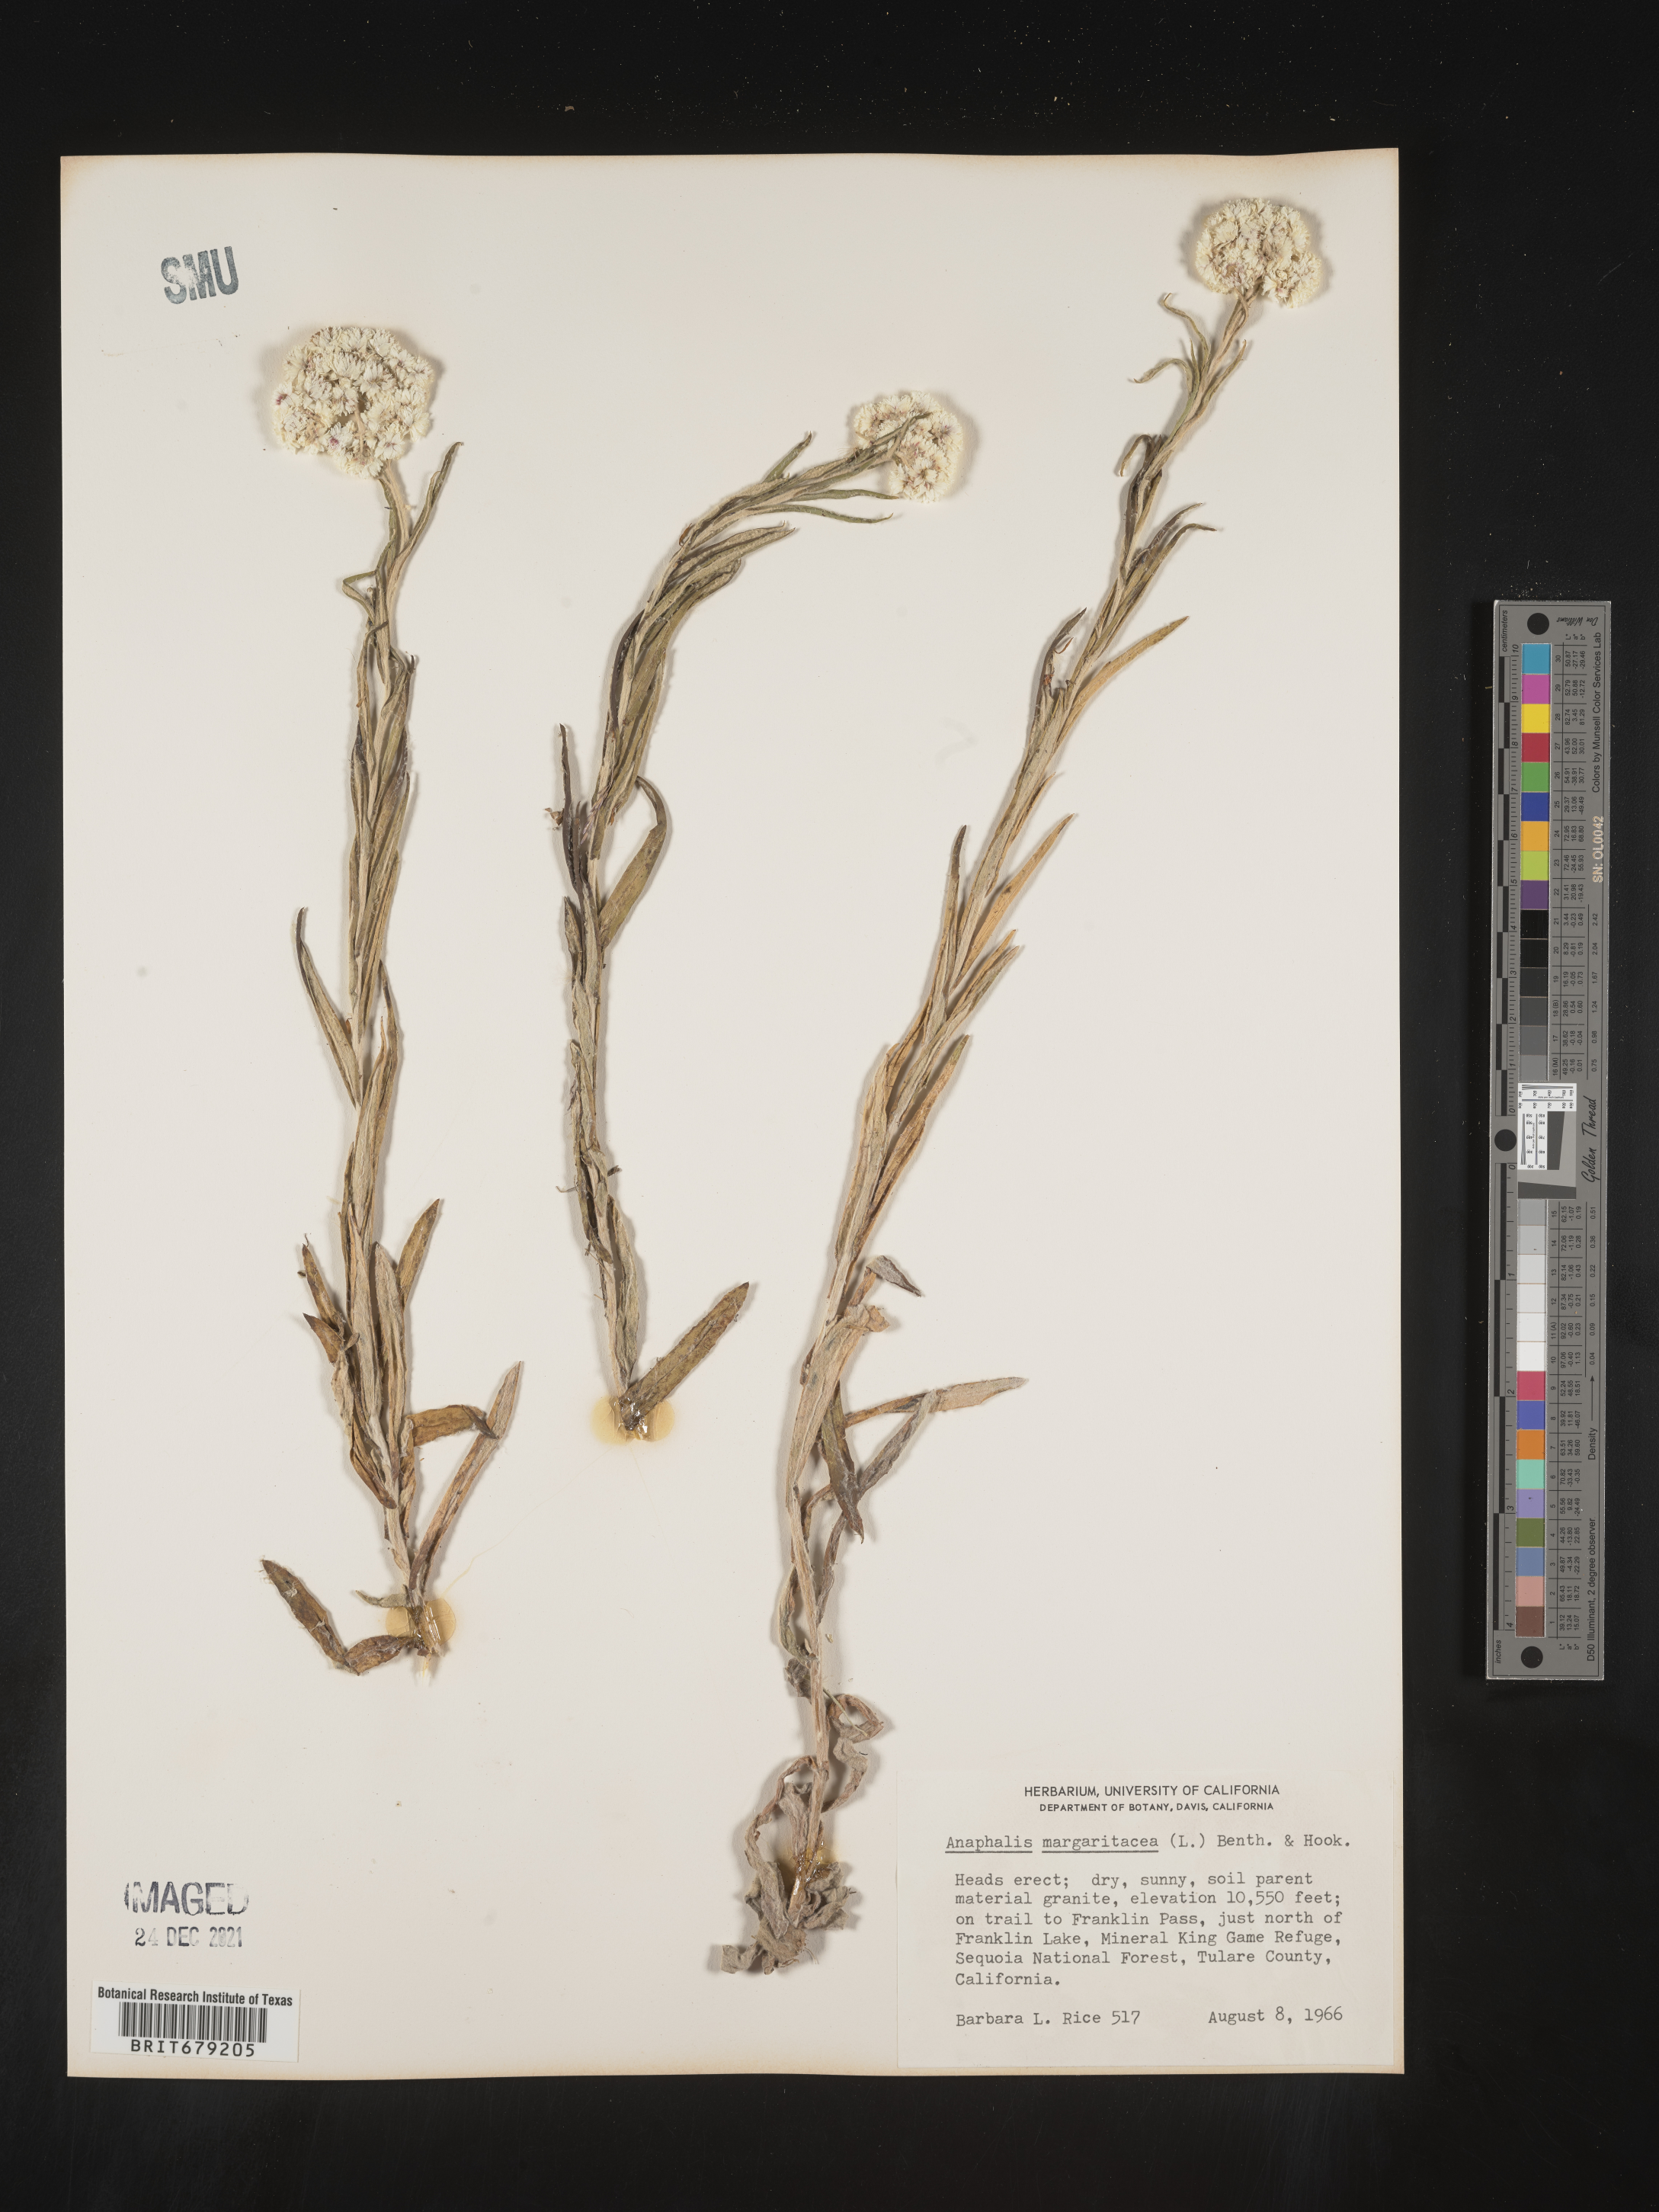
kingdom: Plantae
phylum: Tracheophyta
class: Magnoliopsida
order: Asterales
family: Asteraceae
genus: Anaphalis
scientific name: Anaphalis margaritacea
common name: Pearly everlasting
